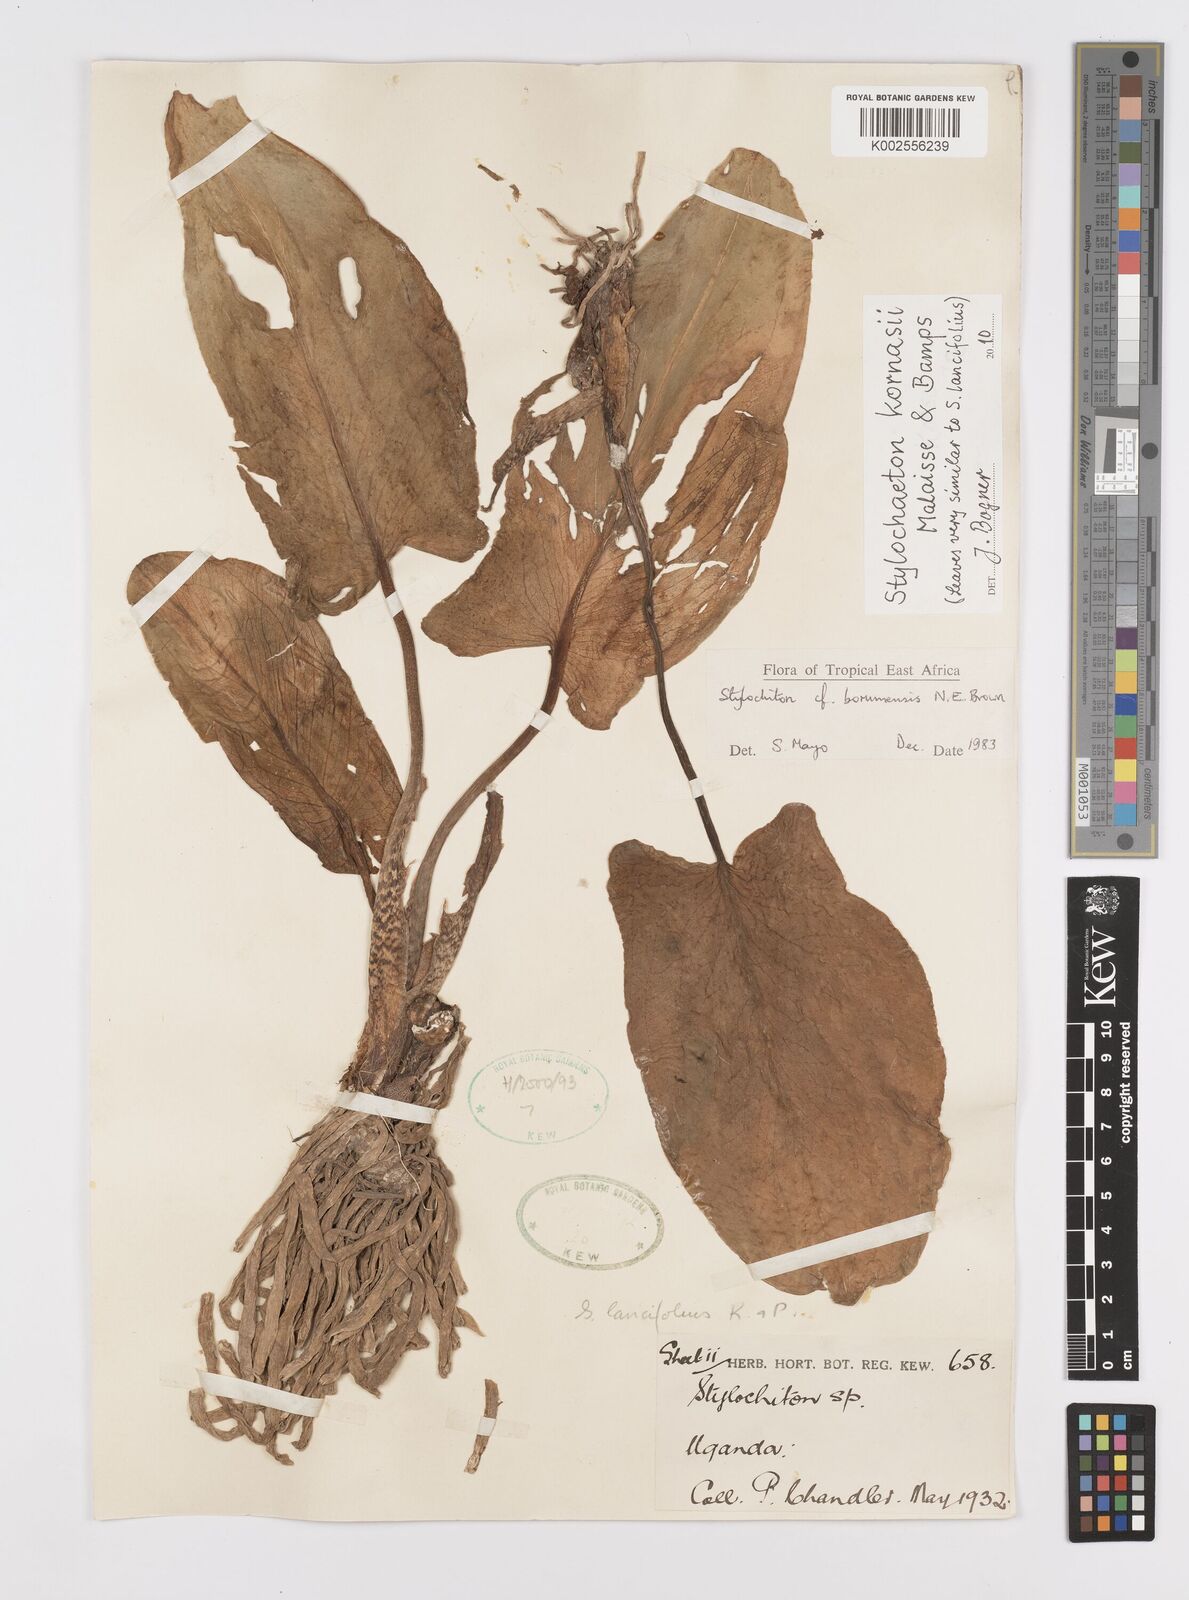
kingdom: Plantae
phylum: Tracheophyta
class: Liliopsida
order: Alismatales
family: Araceae
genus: Stylochaeton
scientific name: Stylochaeton kornasii
